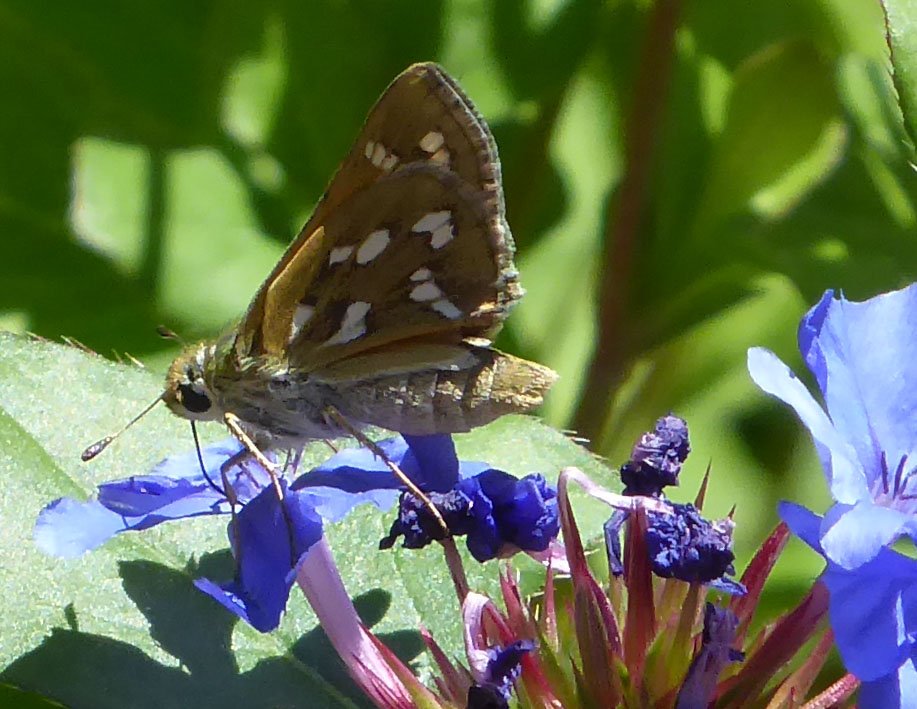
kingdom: Animalia
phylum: Arthropoda
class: Insecta
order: Lepidoptera
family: Hesperiidae
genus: Hesperia
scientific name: Hesperia viridis
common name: Green Skipper
